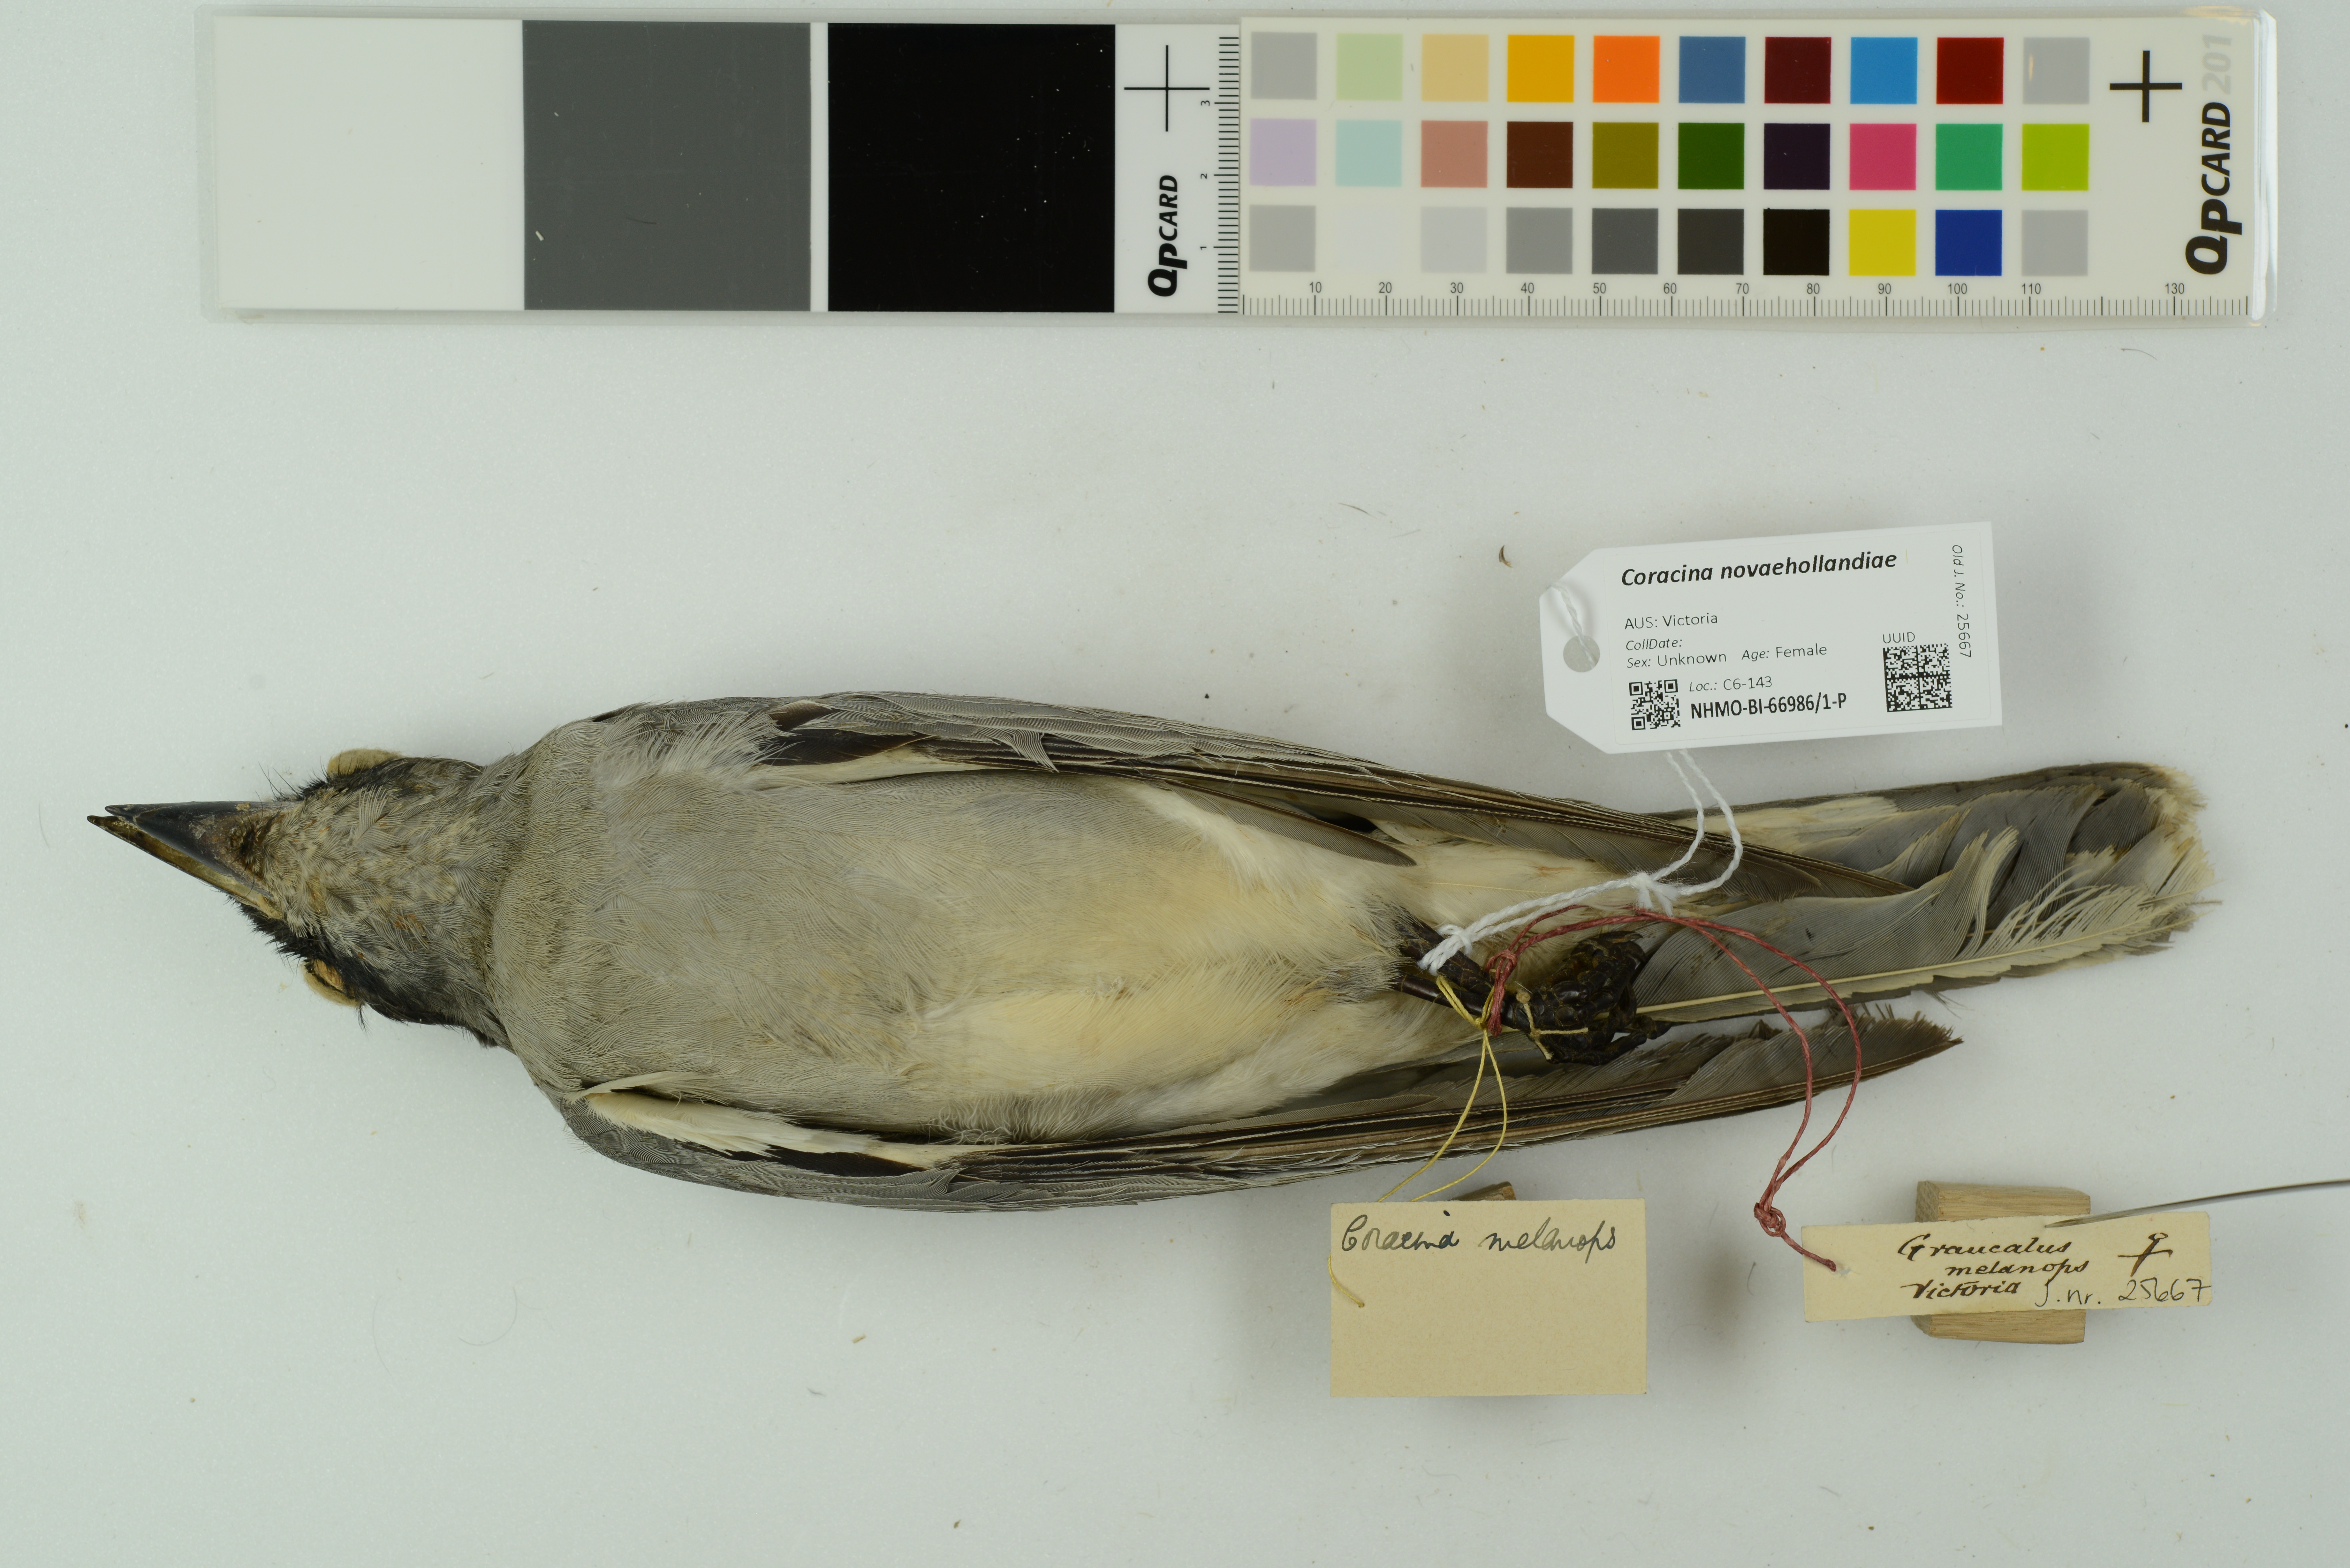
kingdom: Animalia
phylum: Chordata
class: Aves
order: Passeriformes
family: Campephagidae
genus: Coracina
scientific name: Coracina novaehollandiae
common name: Black-faced cuckooshrike
